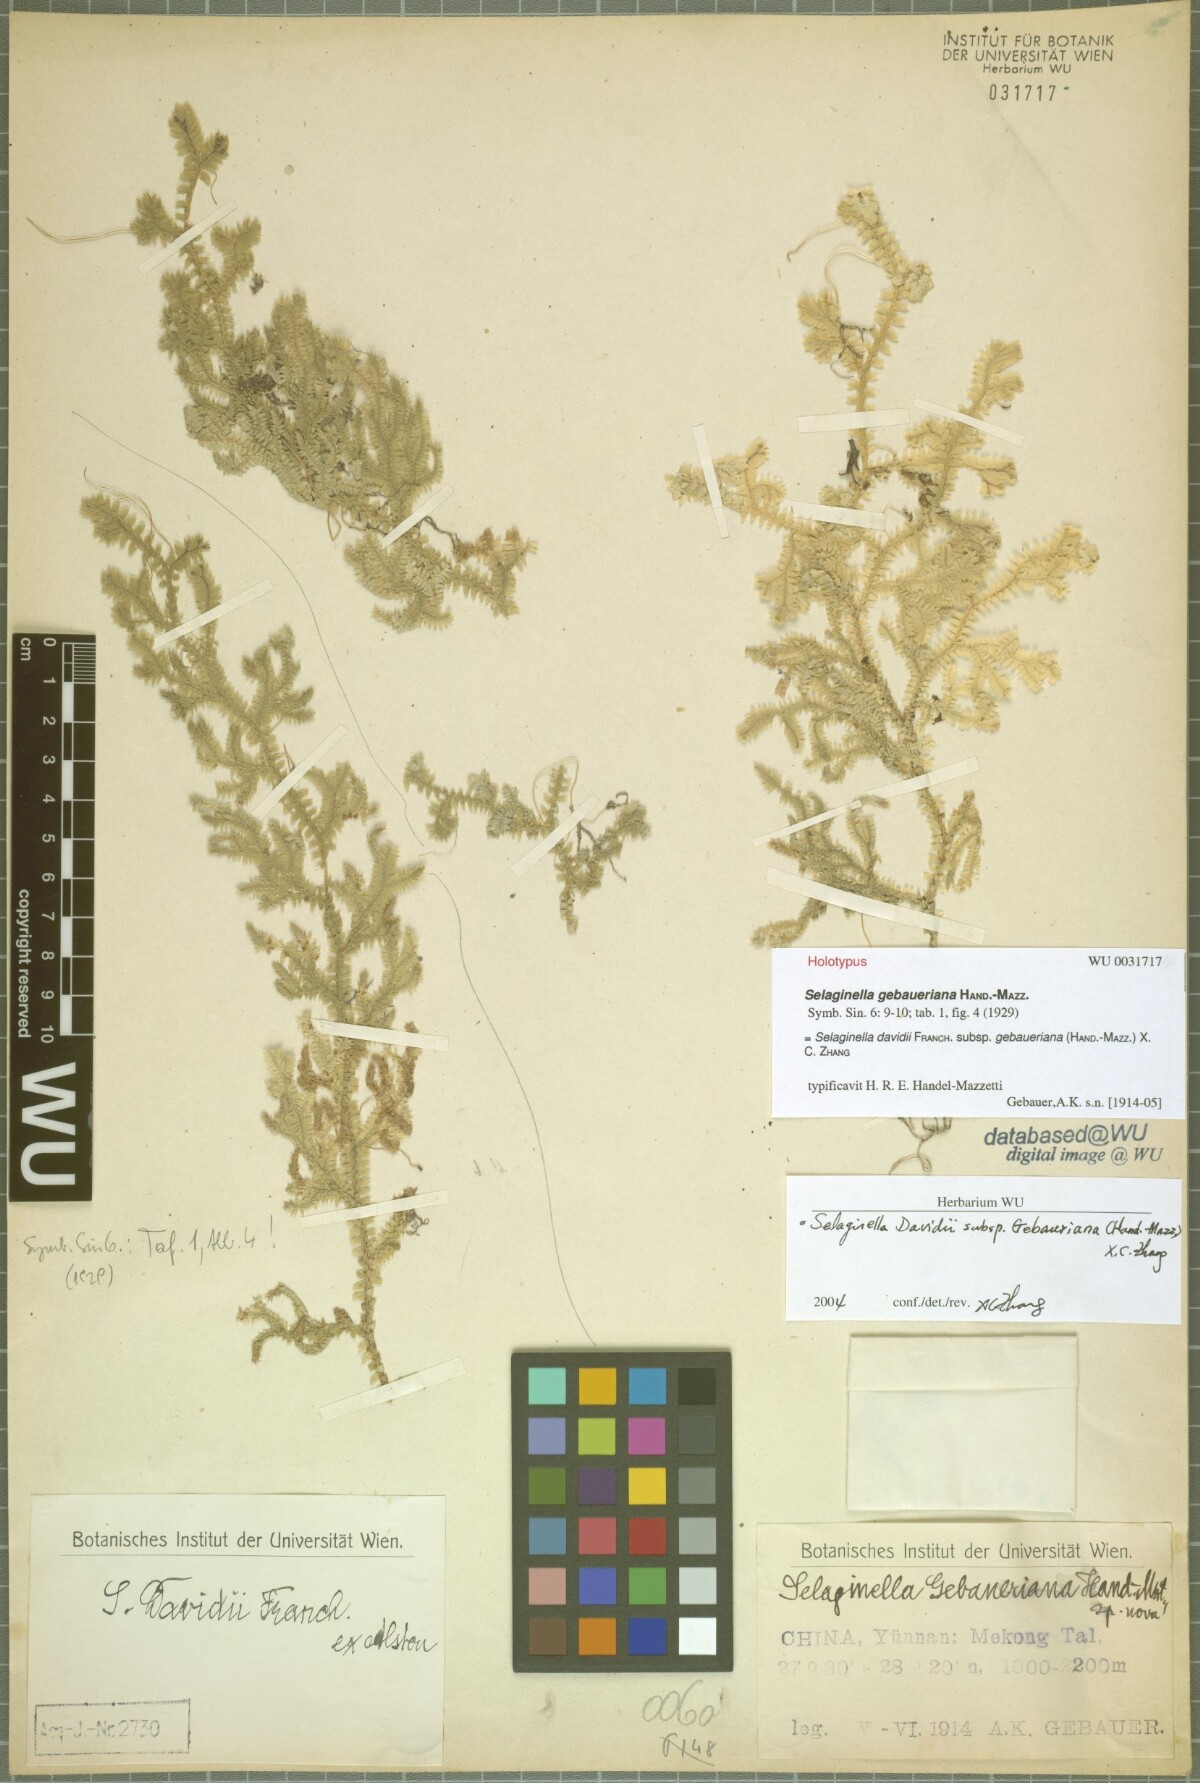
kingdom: Plantae
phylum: Tracheophyta
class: Lycopodiopsida
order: Selaginellales
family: Selaginellaceae
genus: Selaginella
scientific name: Selaginella davidii
